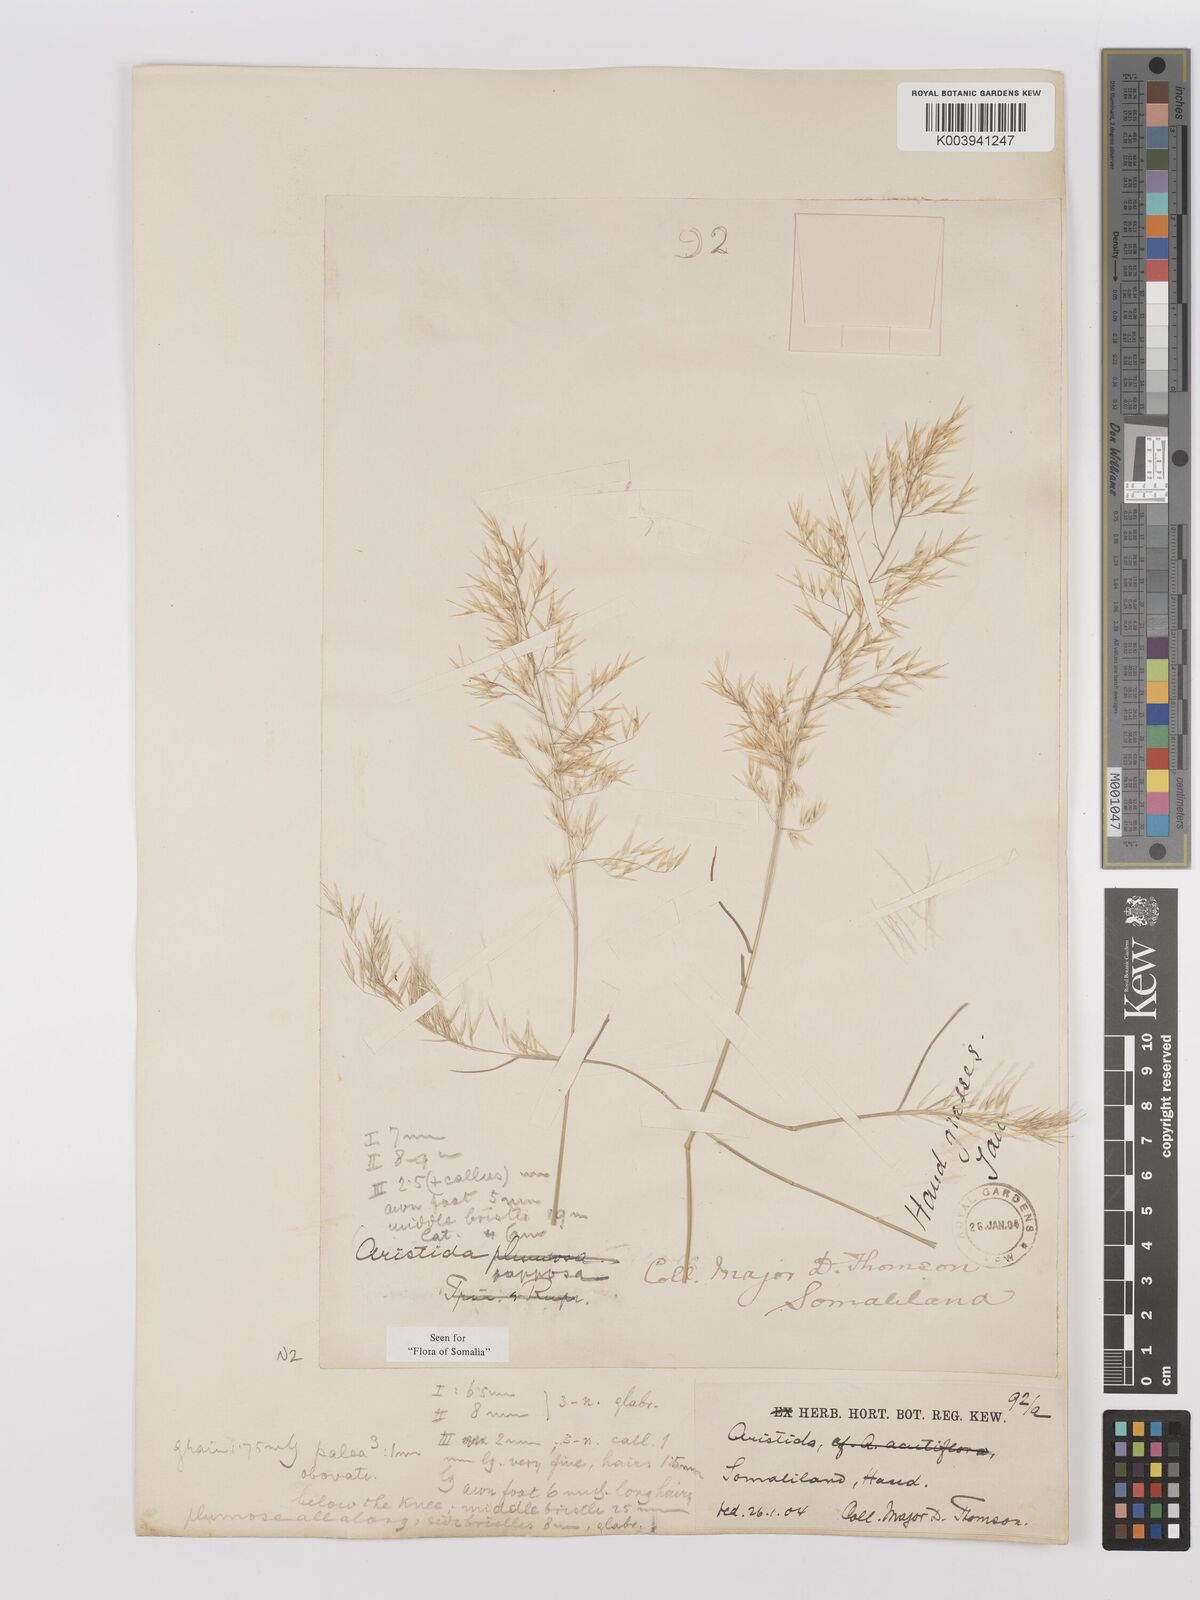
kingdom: Plantae
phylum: Tracheophyta
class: Liliopsida
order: Poales
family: Poaceae
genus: Stipagrostis
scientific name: Stipagrostis uniplumis
